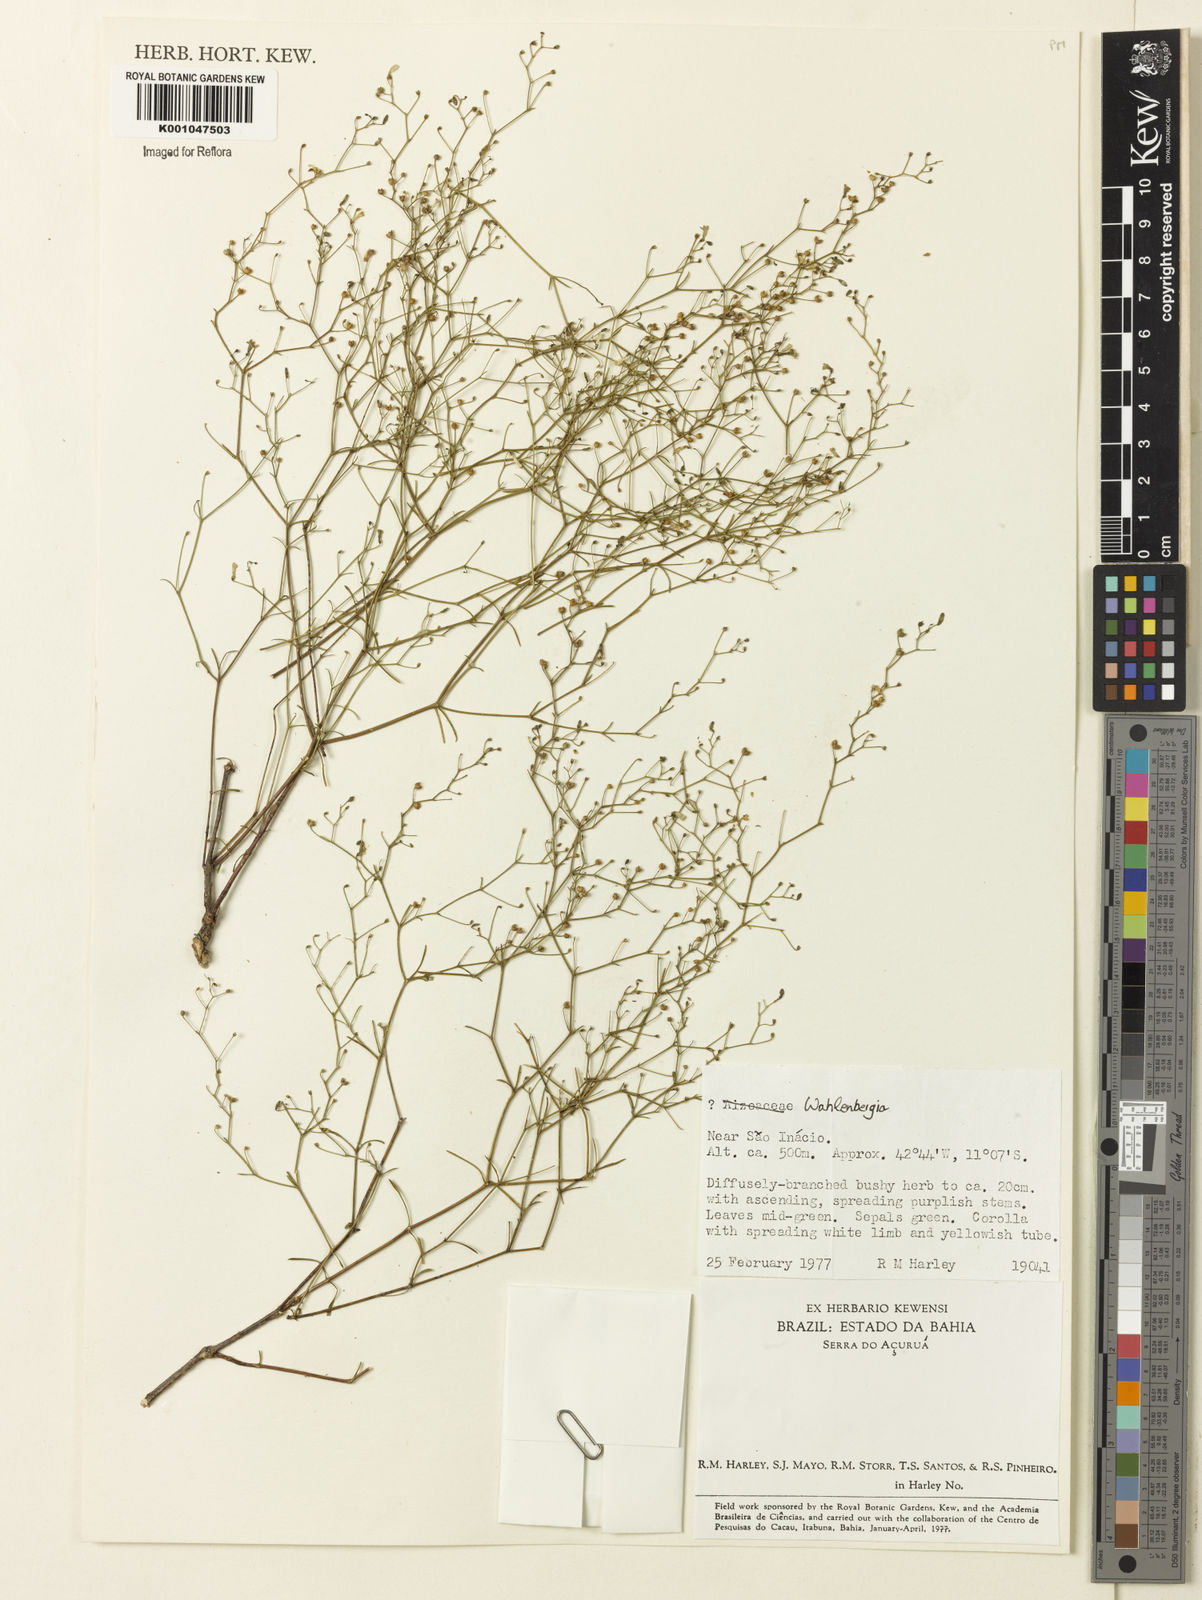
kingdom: Plantae
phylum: Tracheophyta
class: Magnoliopsida
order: Asterales
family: Campanulaceae
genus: Wahlenbergia
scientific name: Wahlenbergia
